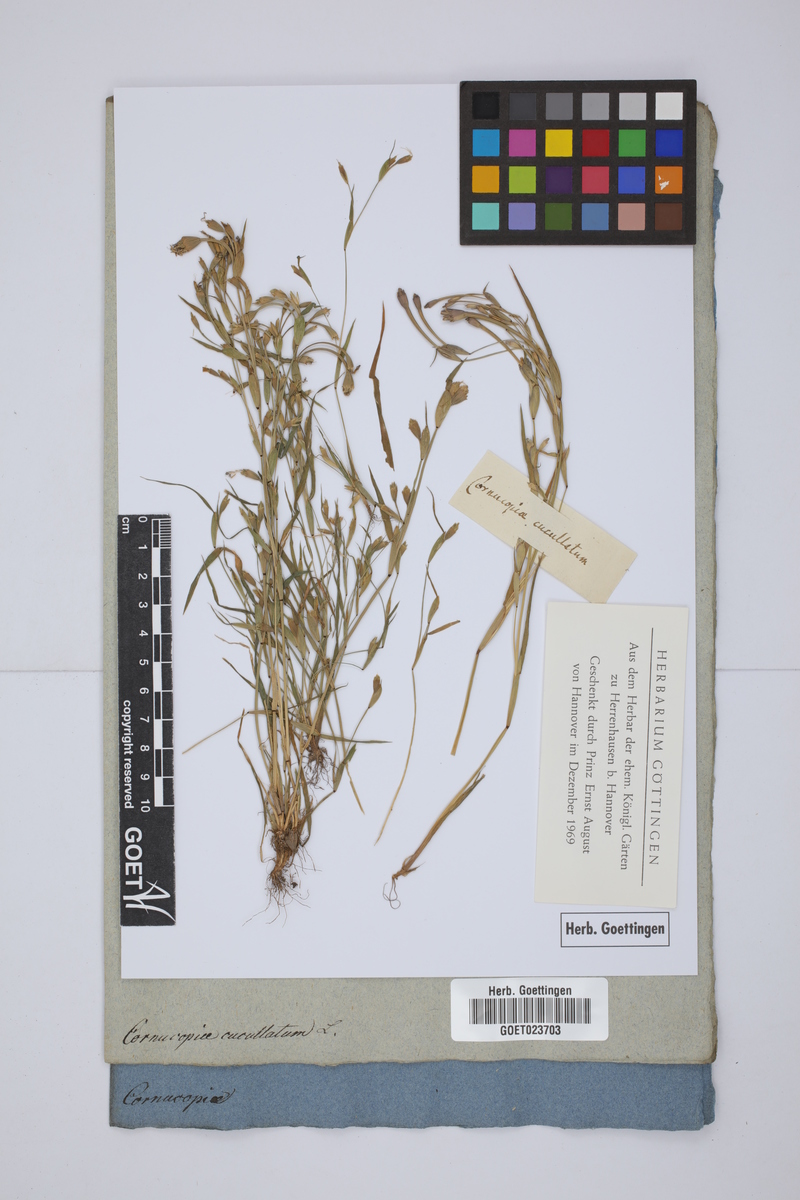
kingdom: Plantae
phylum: Tracheophyta
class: Liliopsida
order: Poales
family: Poaceae
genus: Cornucopiae
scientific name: Cornucopiae cucullatum
